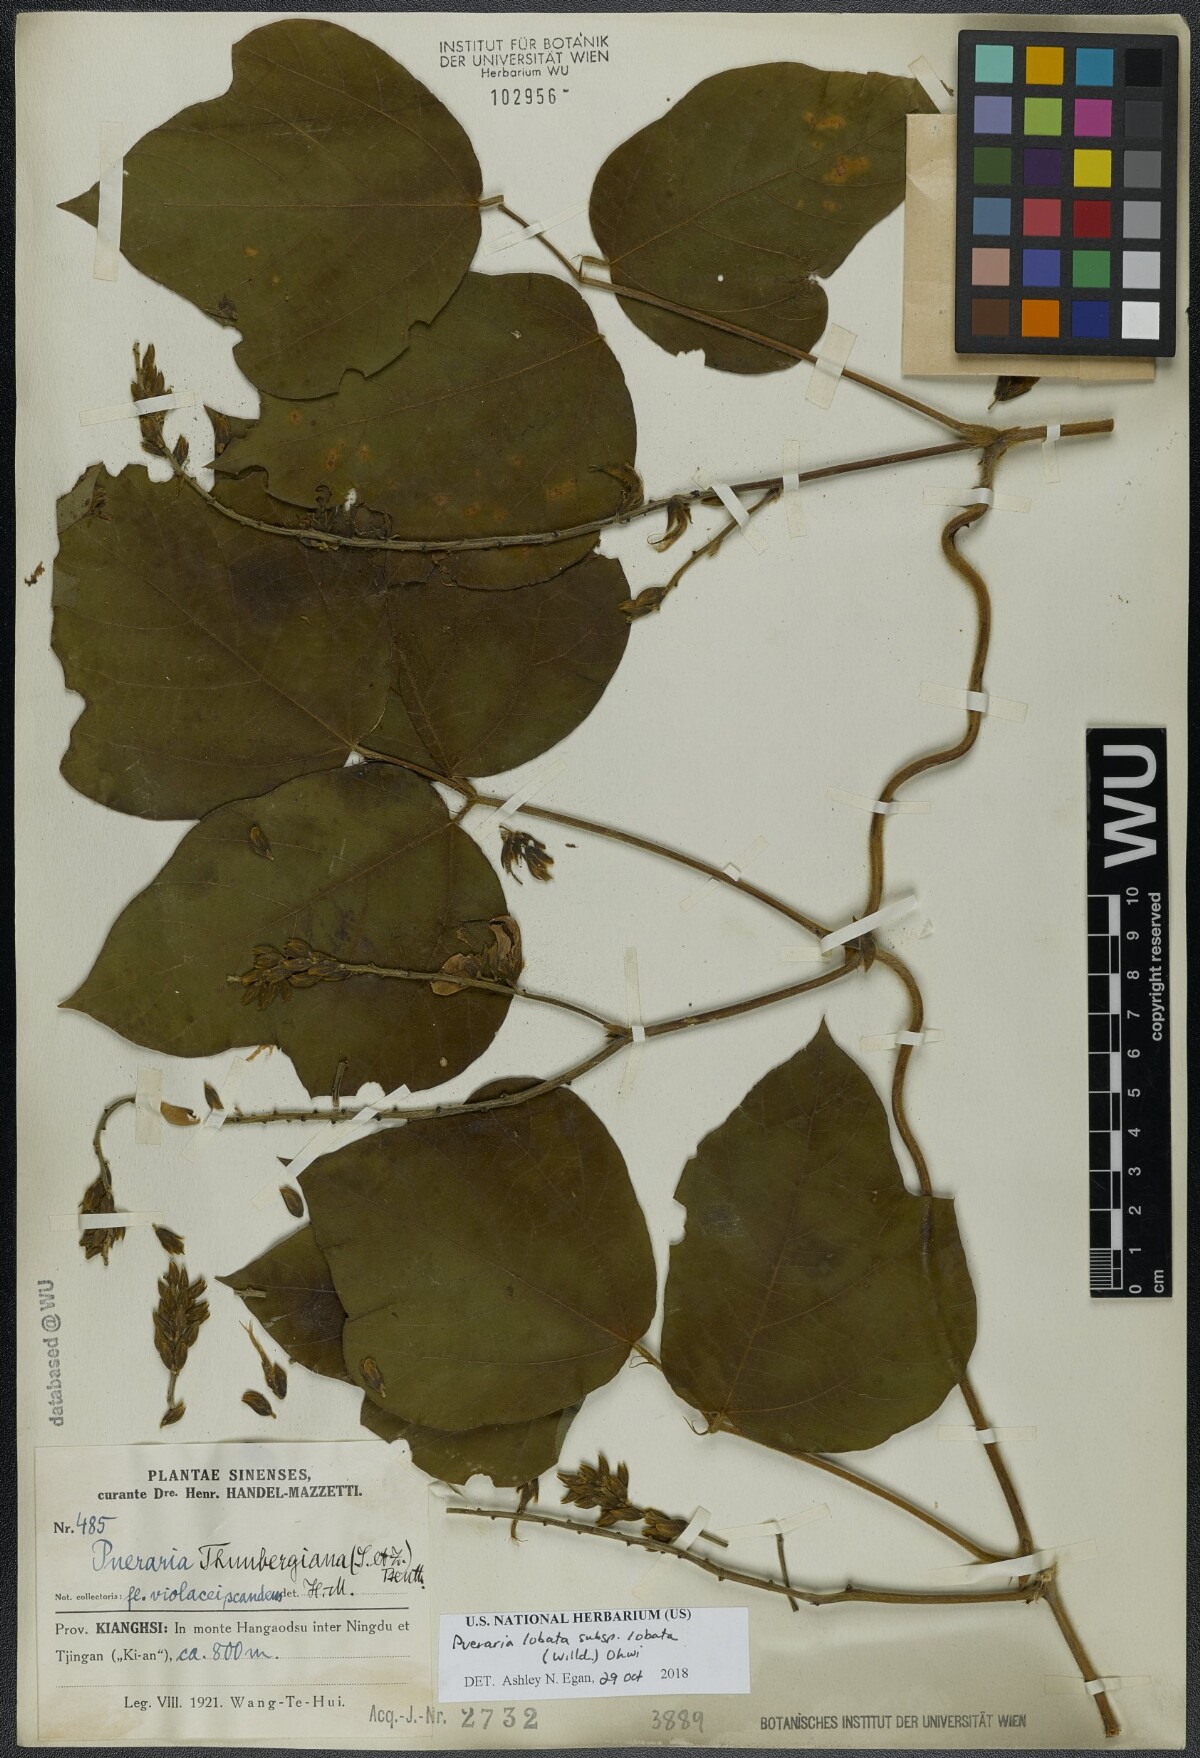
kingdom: Plantae
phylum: Tracheophyta
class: Magnoliopsida
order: Fabales
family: Fabaceae
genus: Pueraria
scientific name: Pueraria montana
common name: Kudzu
